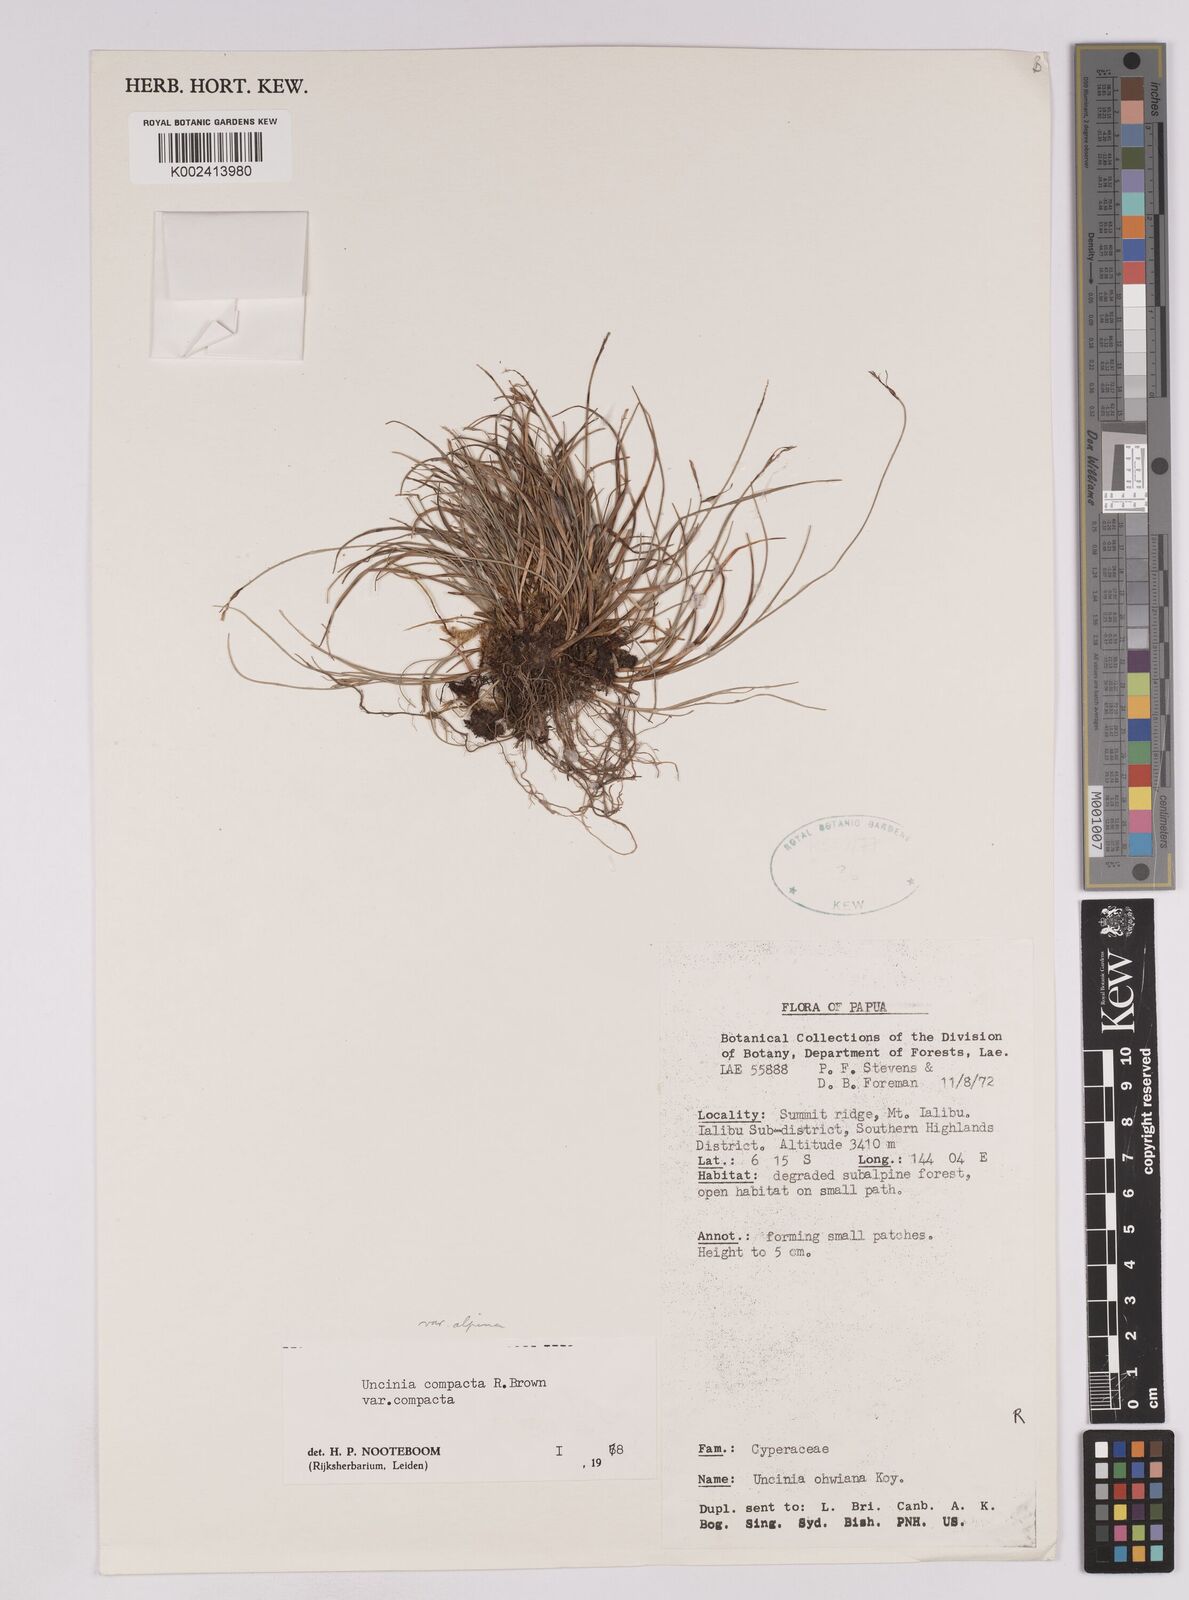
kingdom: Plantae
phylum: Tracheophyta
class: Liliopsida
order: Poales
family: Cyperaceae
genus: Carex
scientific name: Carex austrocompacta
